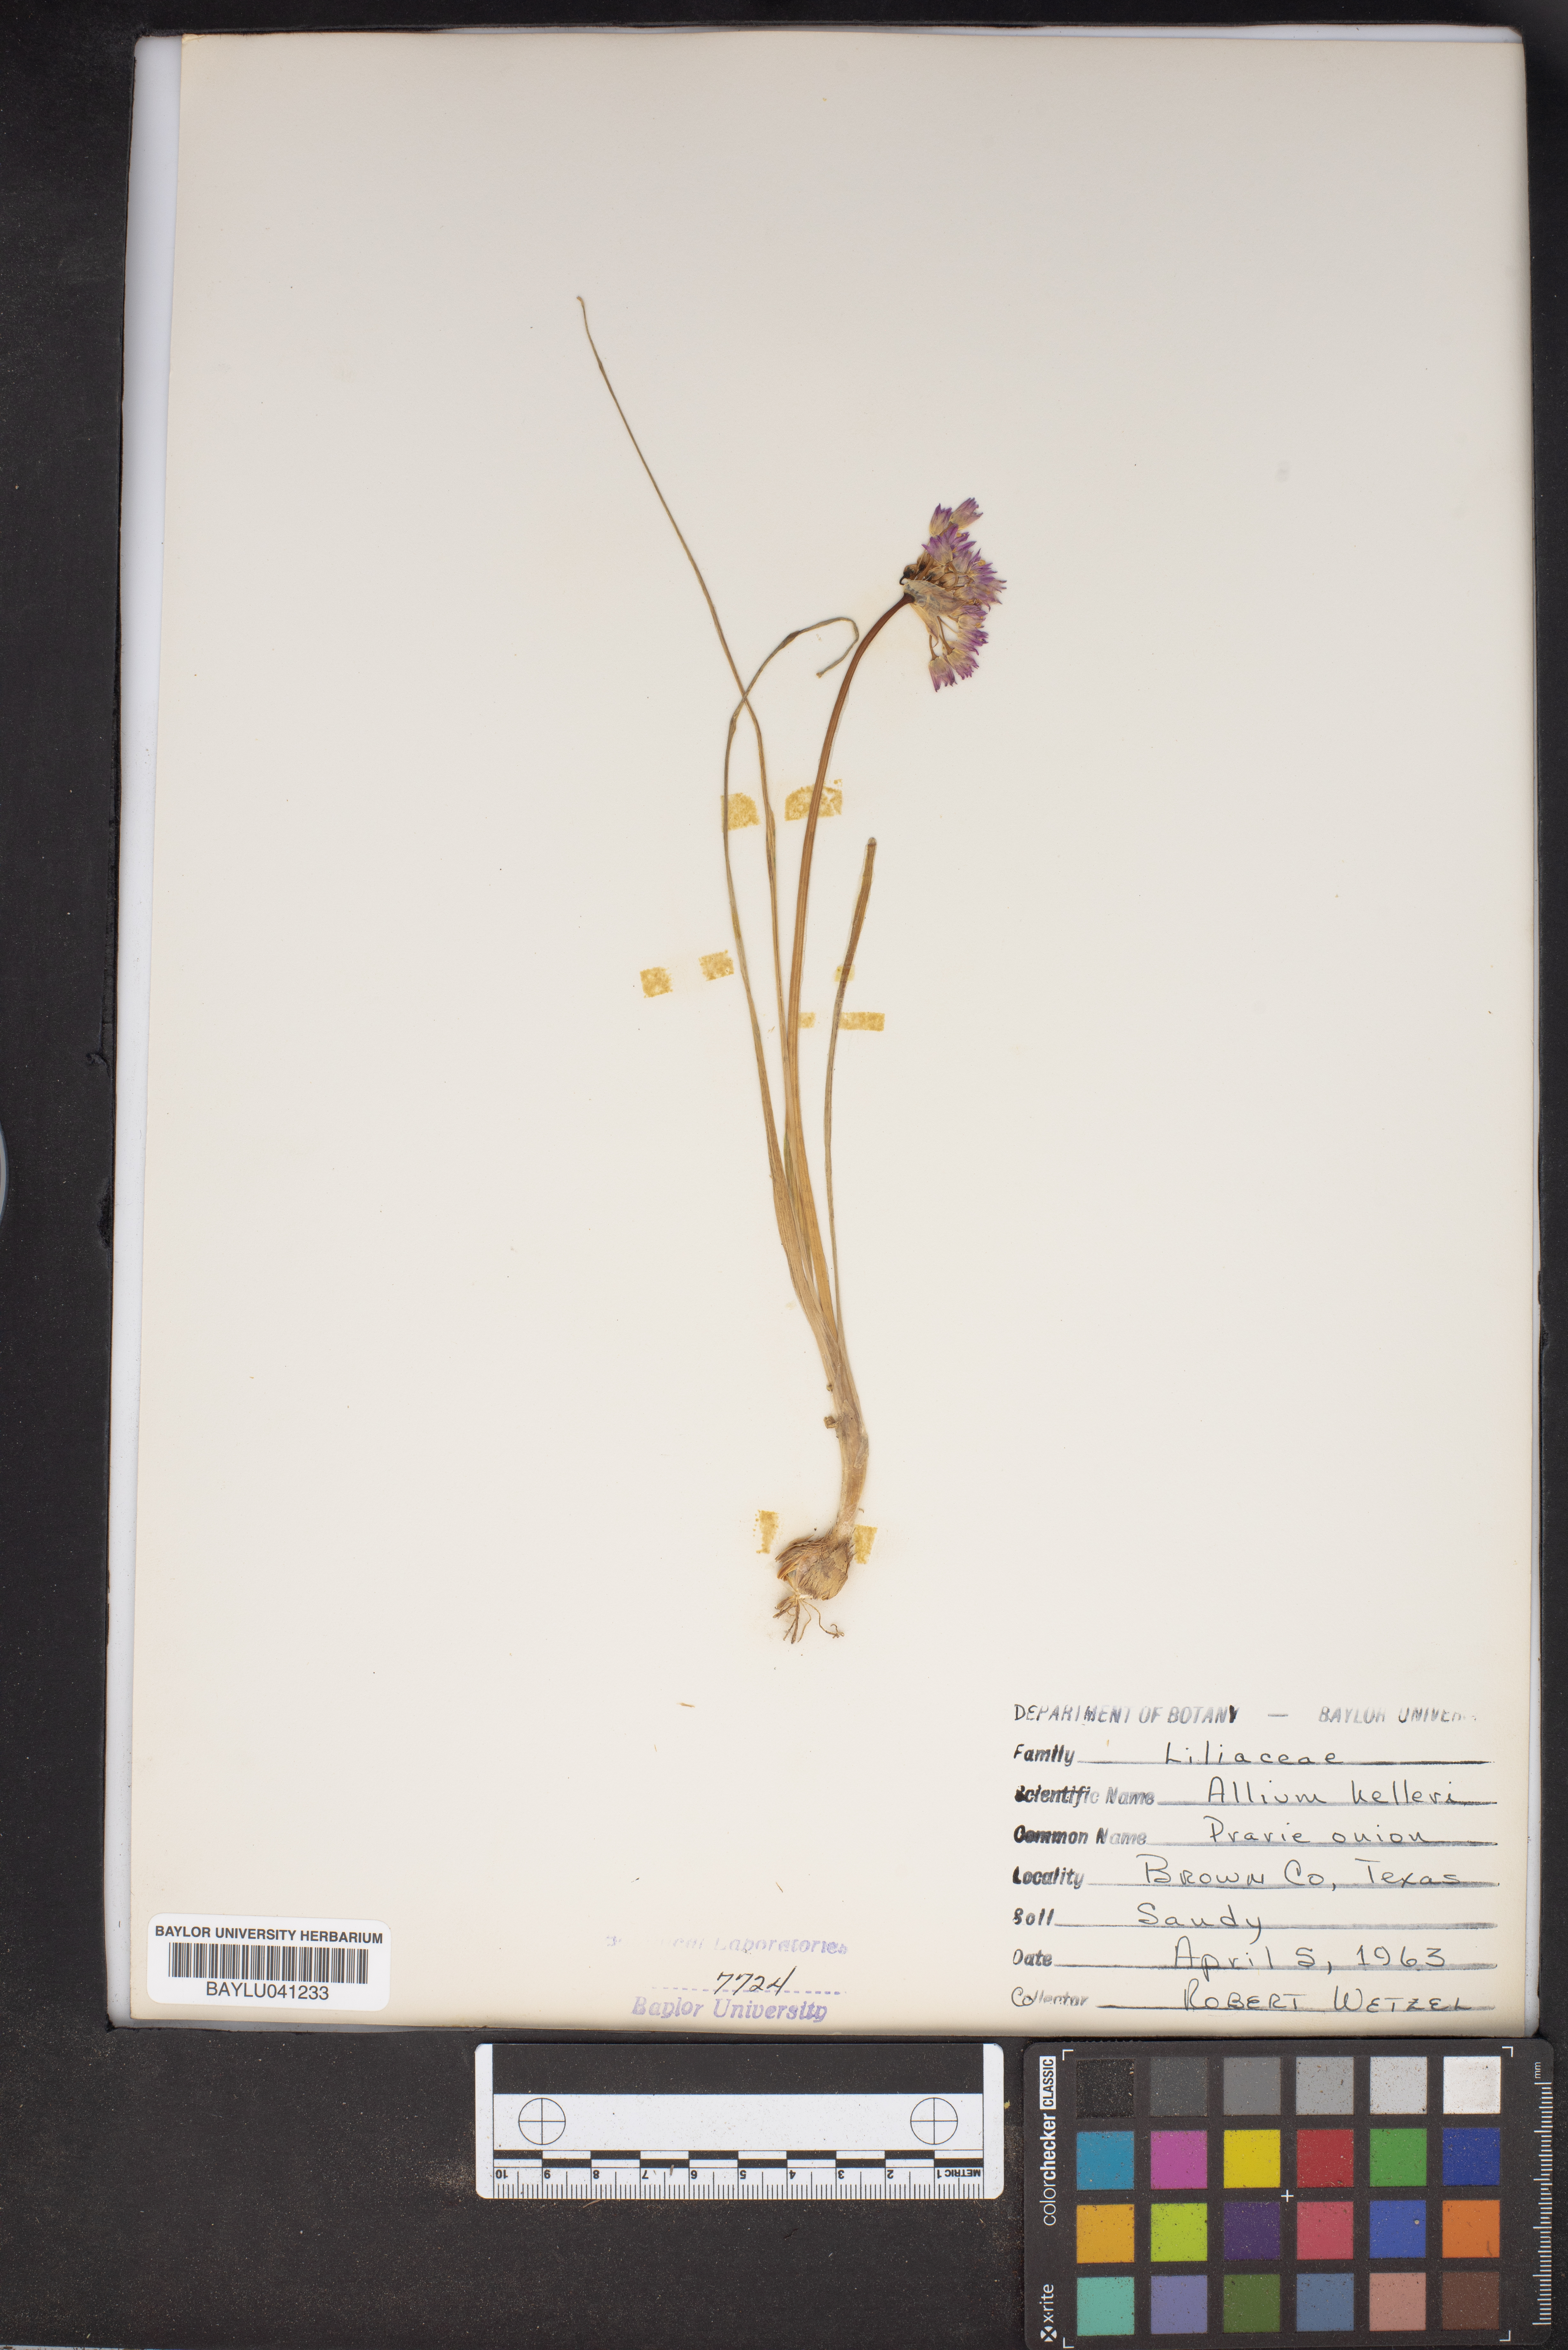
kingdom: Plantae
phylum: Tracheophyta
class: Liliopsida
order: Asparagales
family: Amaryllidaceae
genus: Allium
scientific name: Allium drummondii
